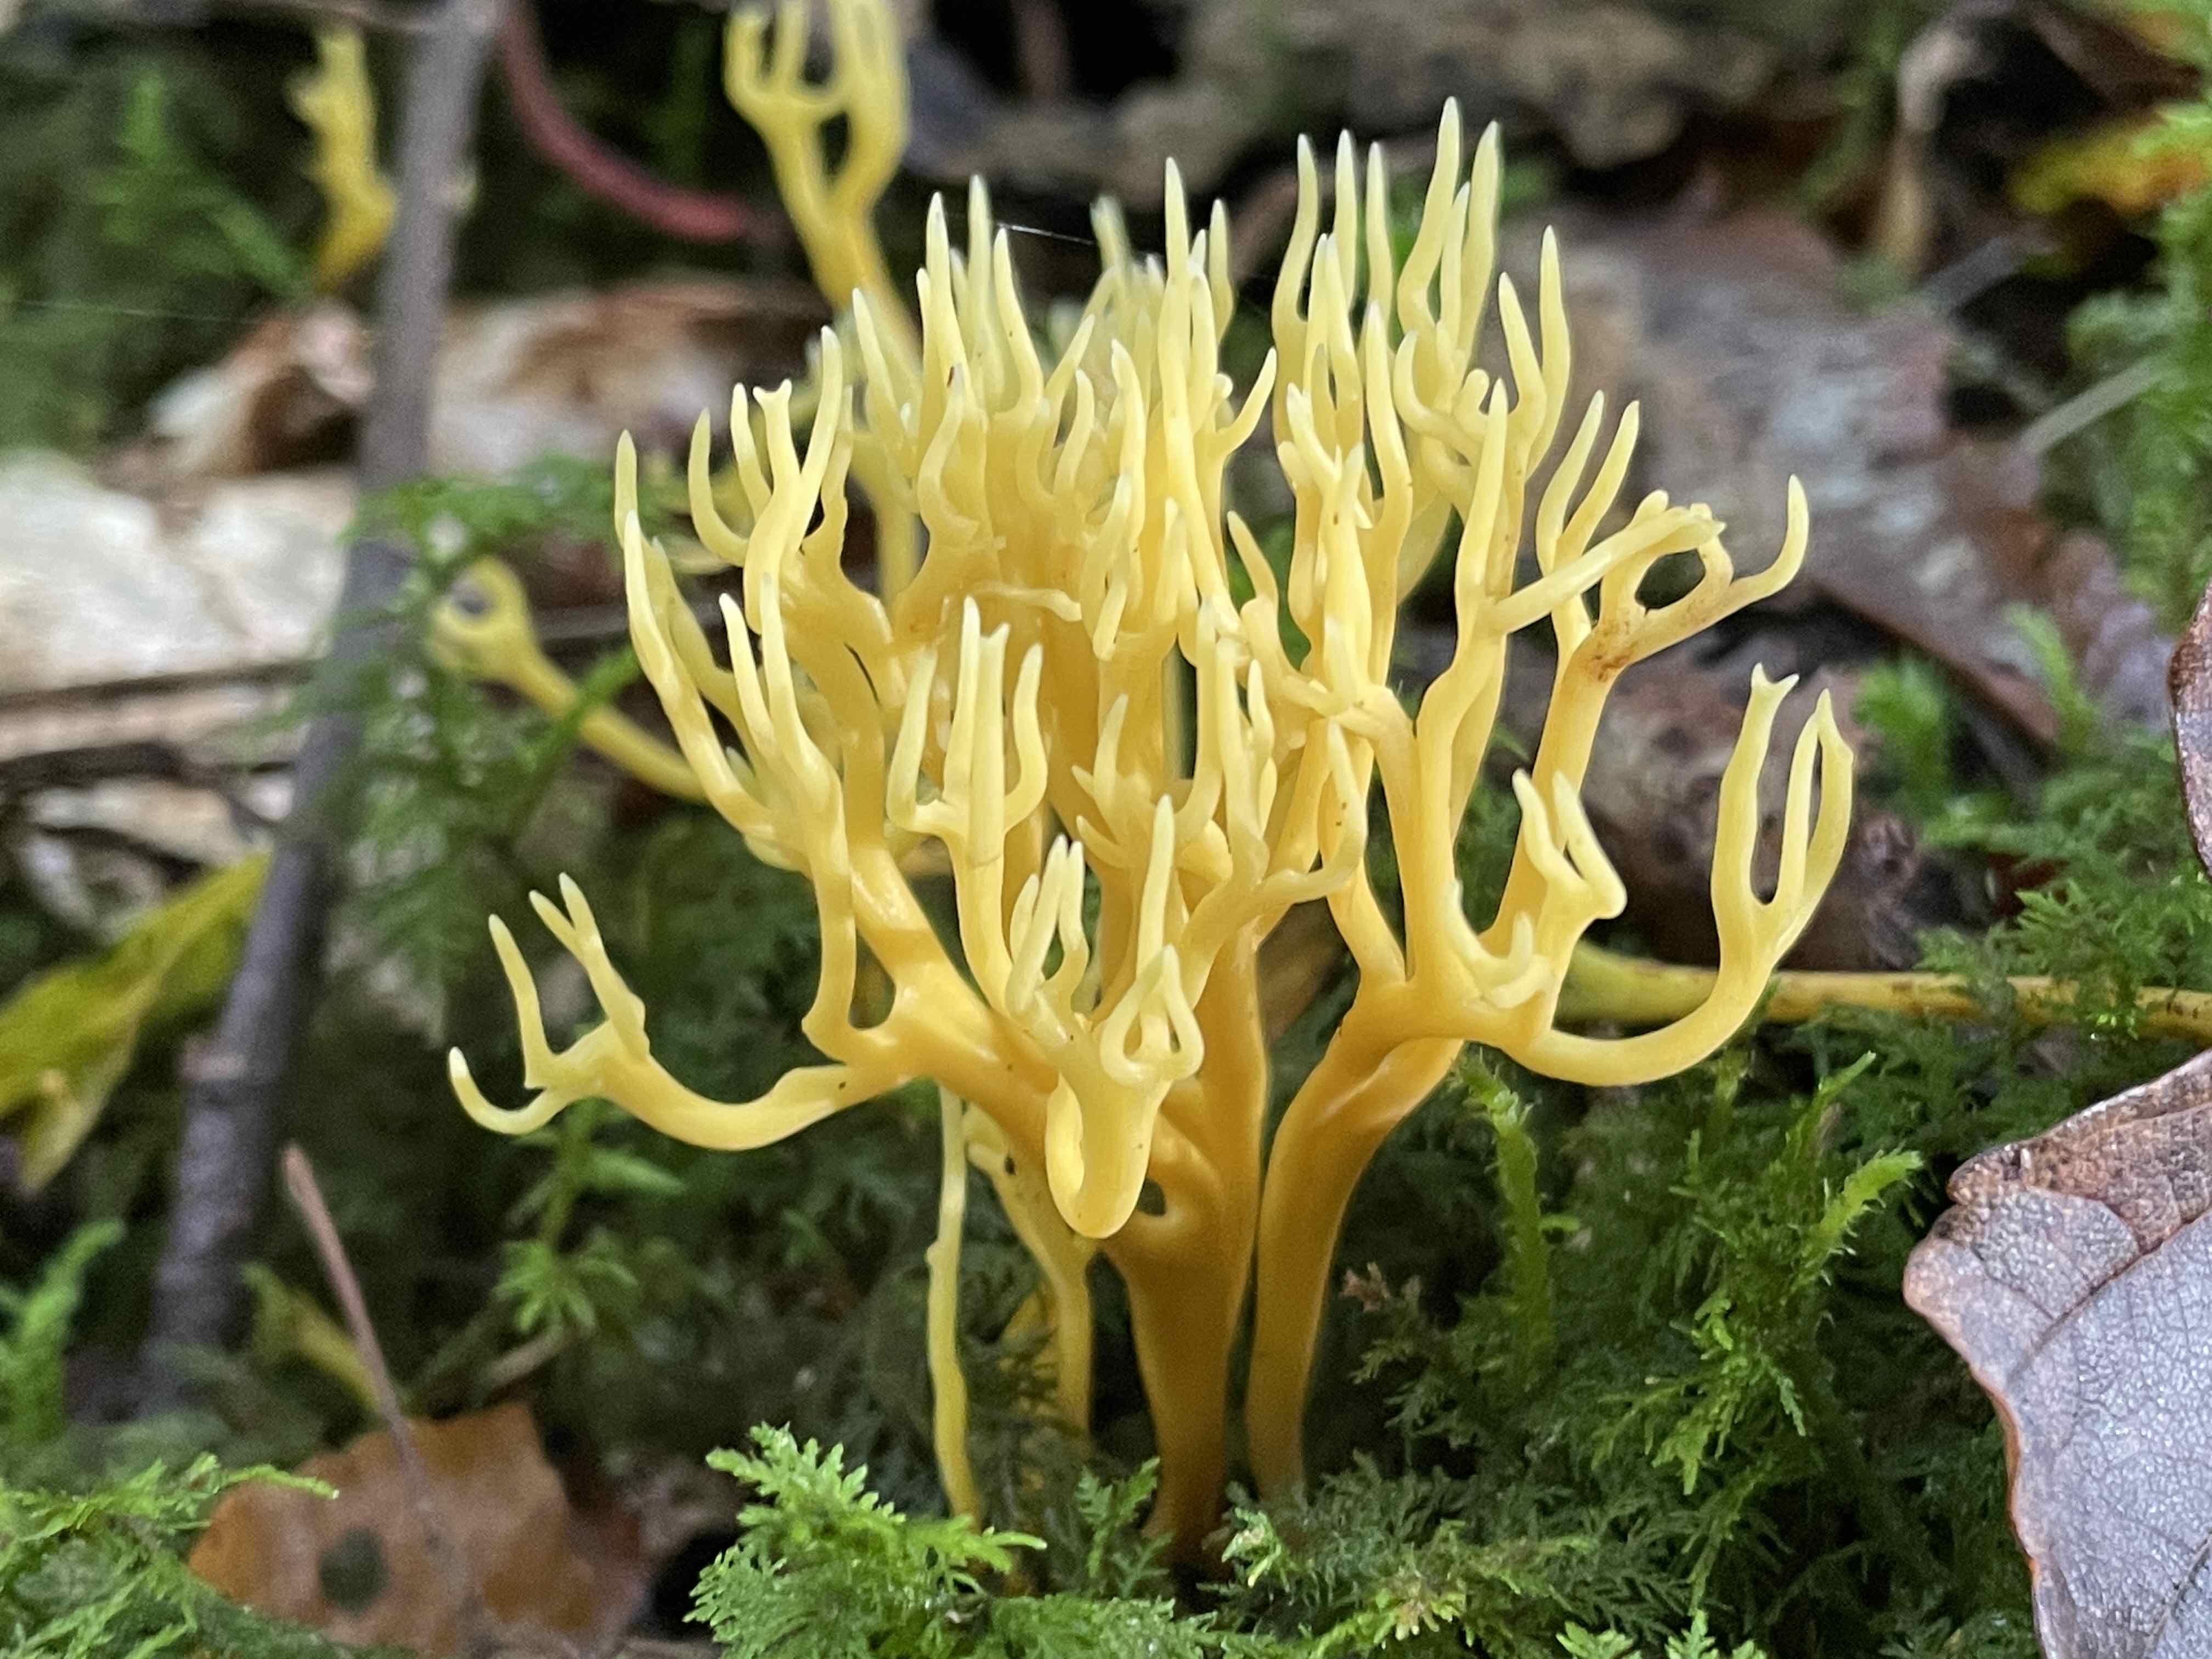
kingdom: Fungi
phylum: Basidiomycota
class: Agaricomycetes
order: Agaricales
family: Clavariaceae
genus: Clavulinopsis
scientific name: Clavulinopsis corniculata
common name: eng-køllesvamp
